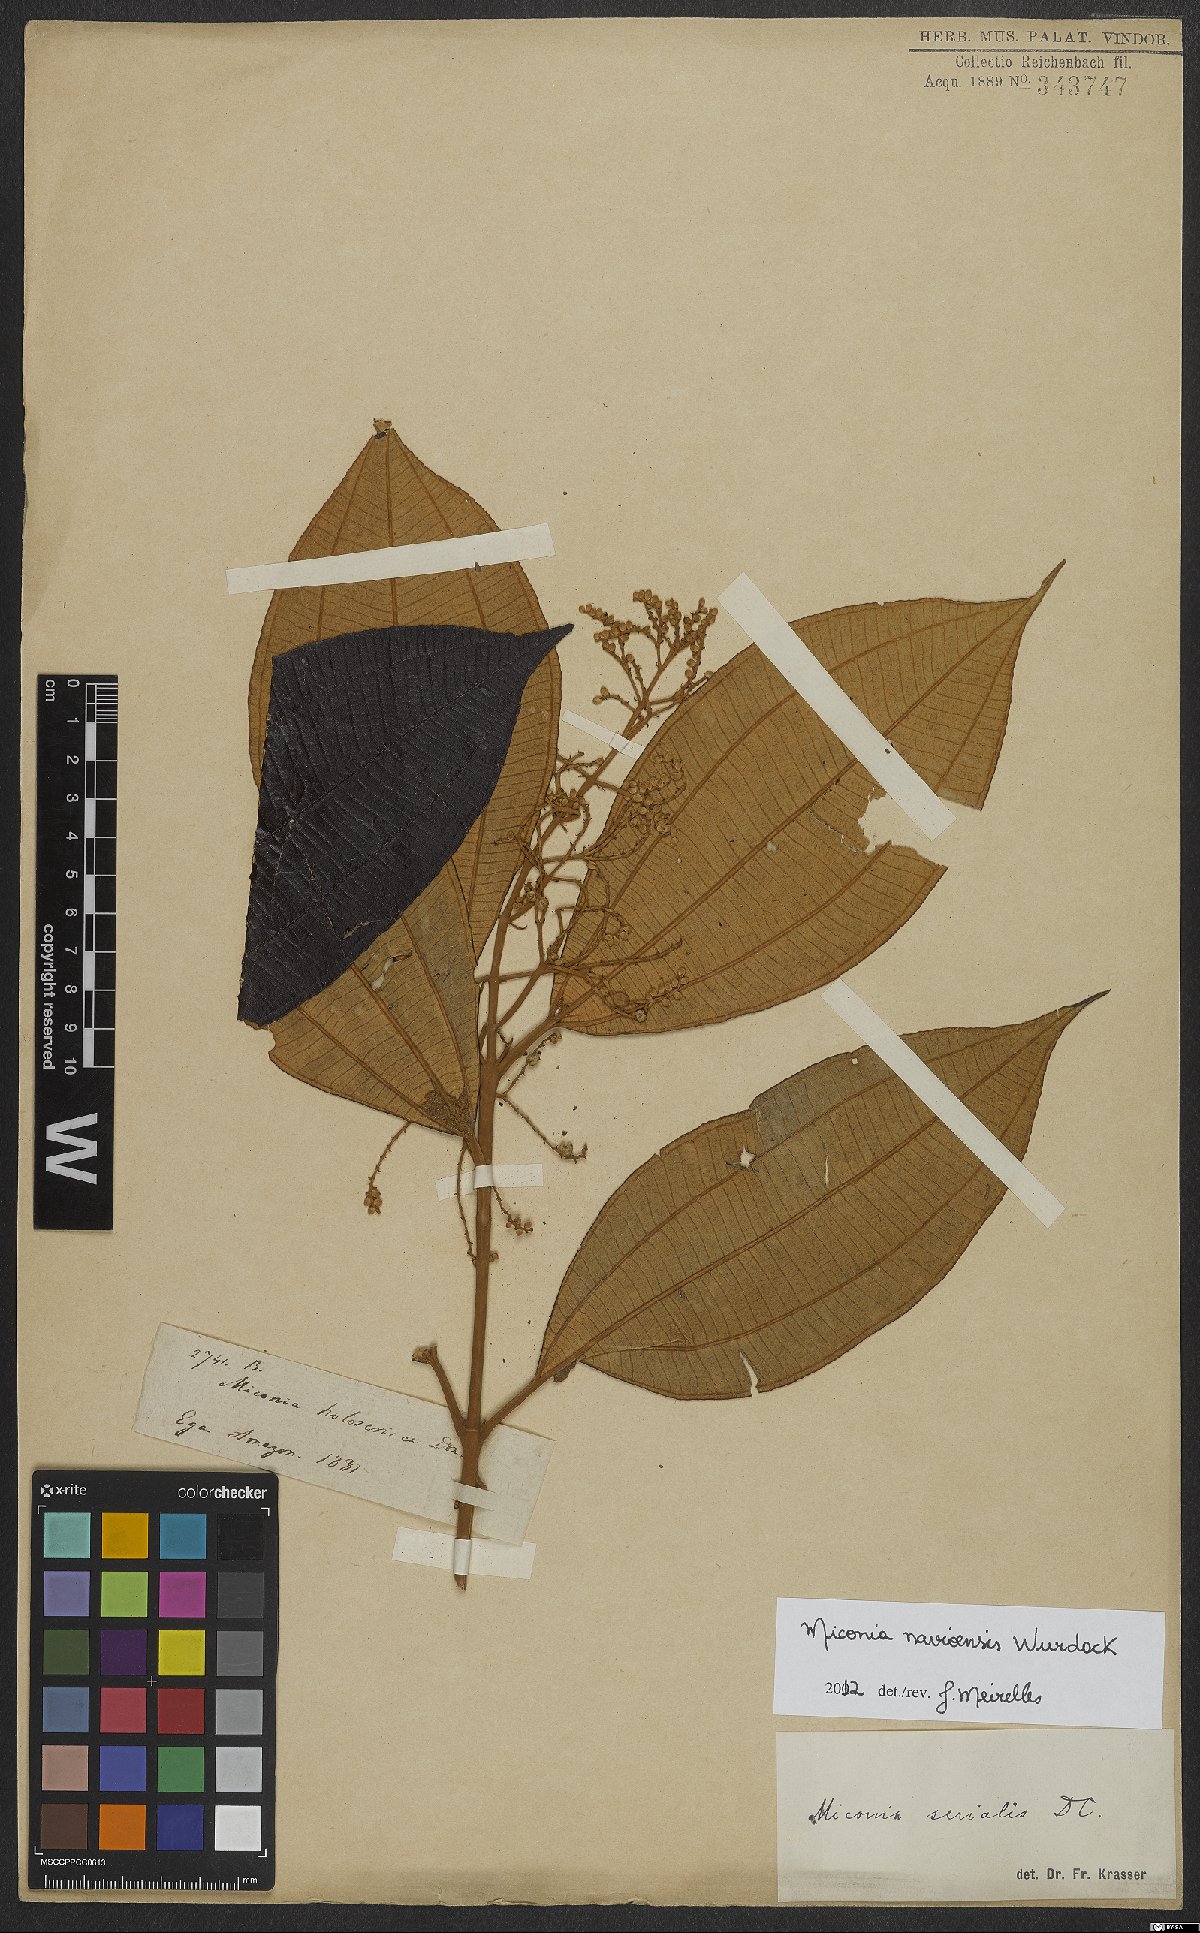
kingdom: Plantae
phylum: Tracheophyta
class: Magnoliopsida
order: Myrtales
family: Melastomataceae
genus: Miconia
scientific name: Miconia navioensis
